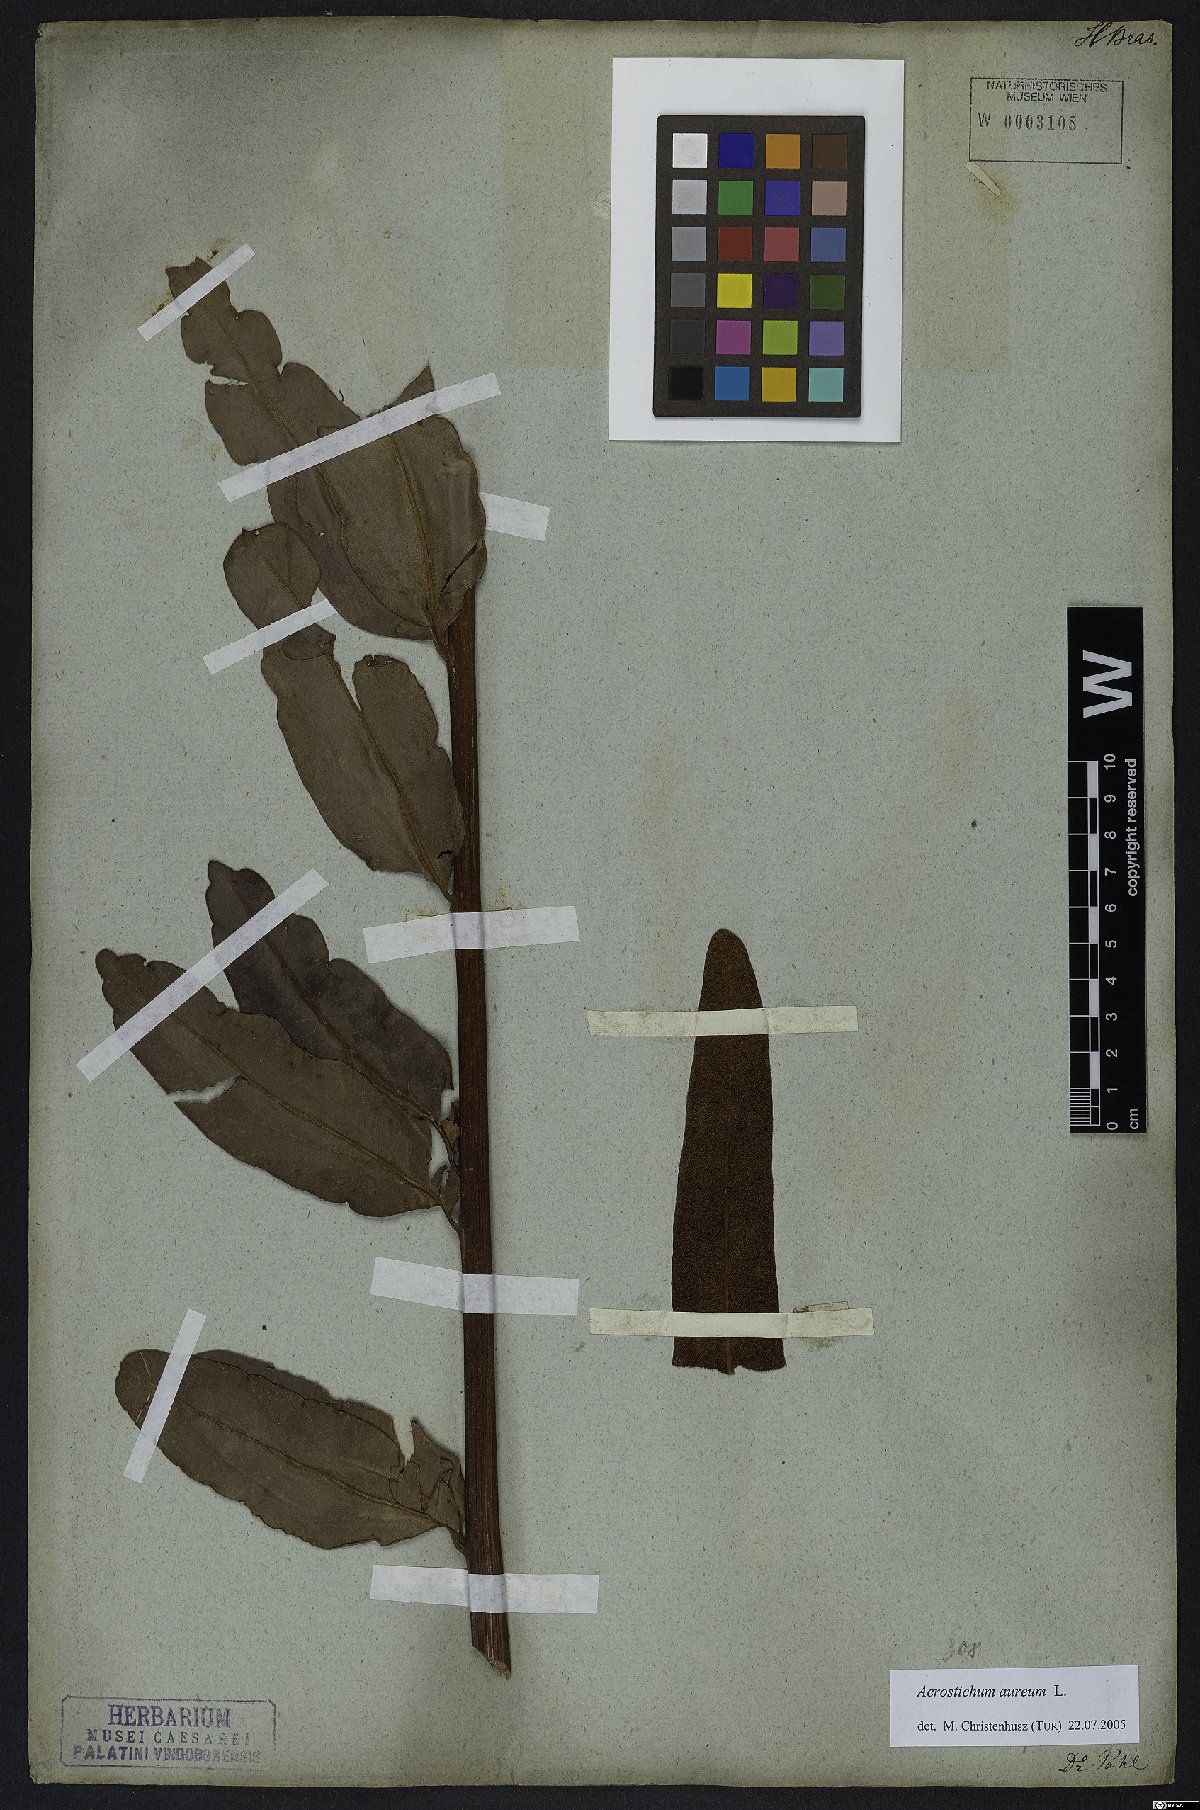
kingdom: Plantae
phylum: Tracheophyta
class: Polypodiopsida
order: Polypodiales
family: Pteridaceae
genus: Acrostichum
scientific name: Acrostichum aureum
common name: Leather fern
